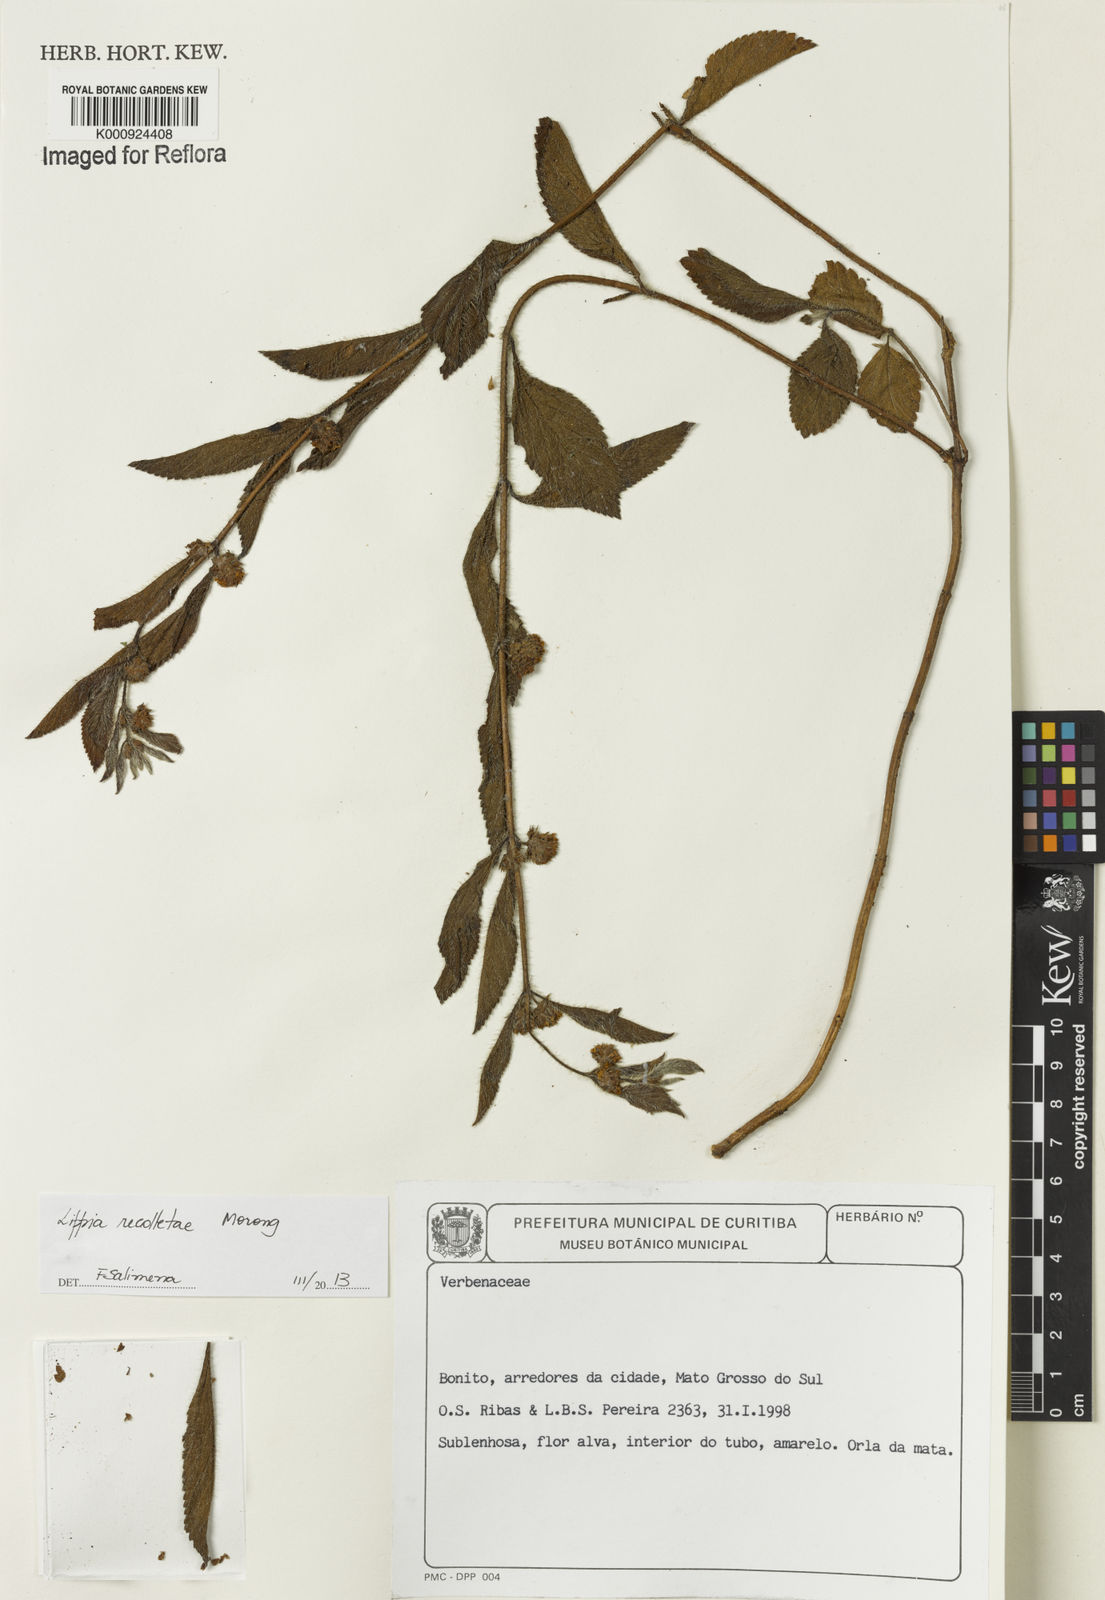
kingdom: Plantae
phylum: Tracheophyta
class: Magnoliopsida
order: Lamiales
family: Verbenaceae
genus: Lippia
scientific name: Lippia
